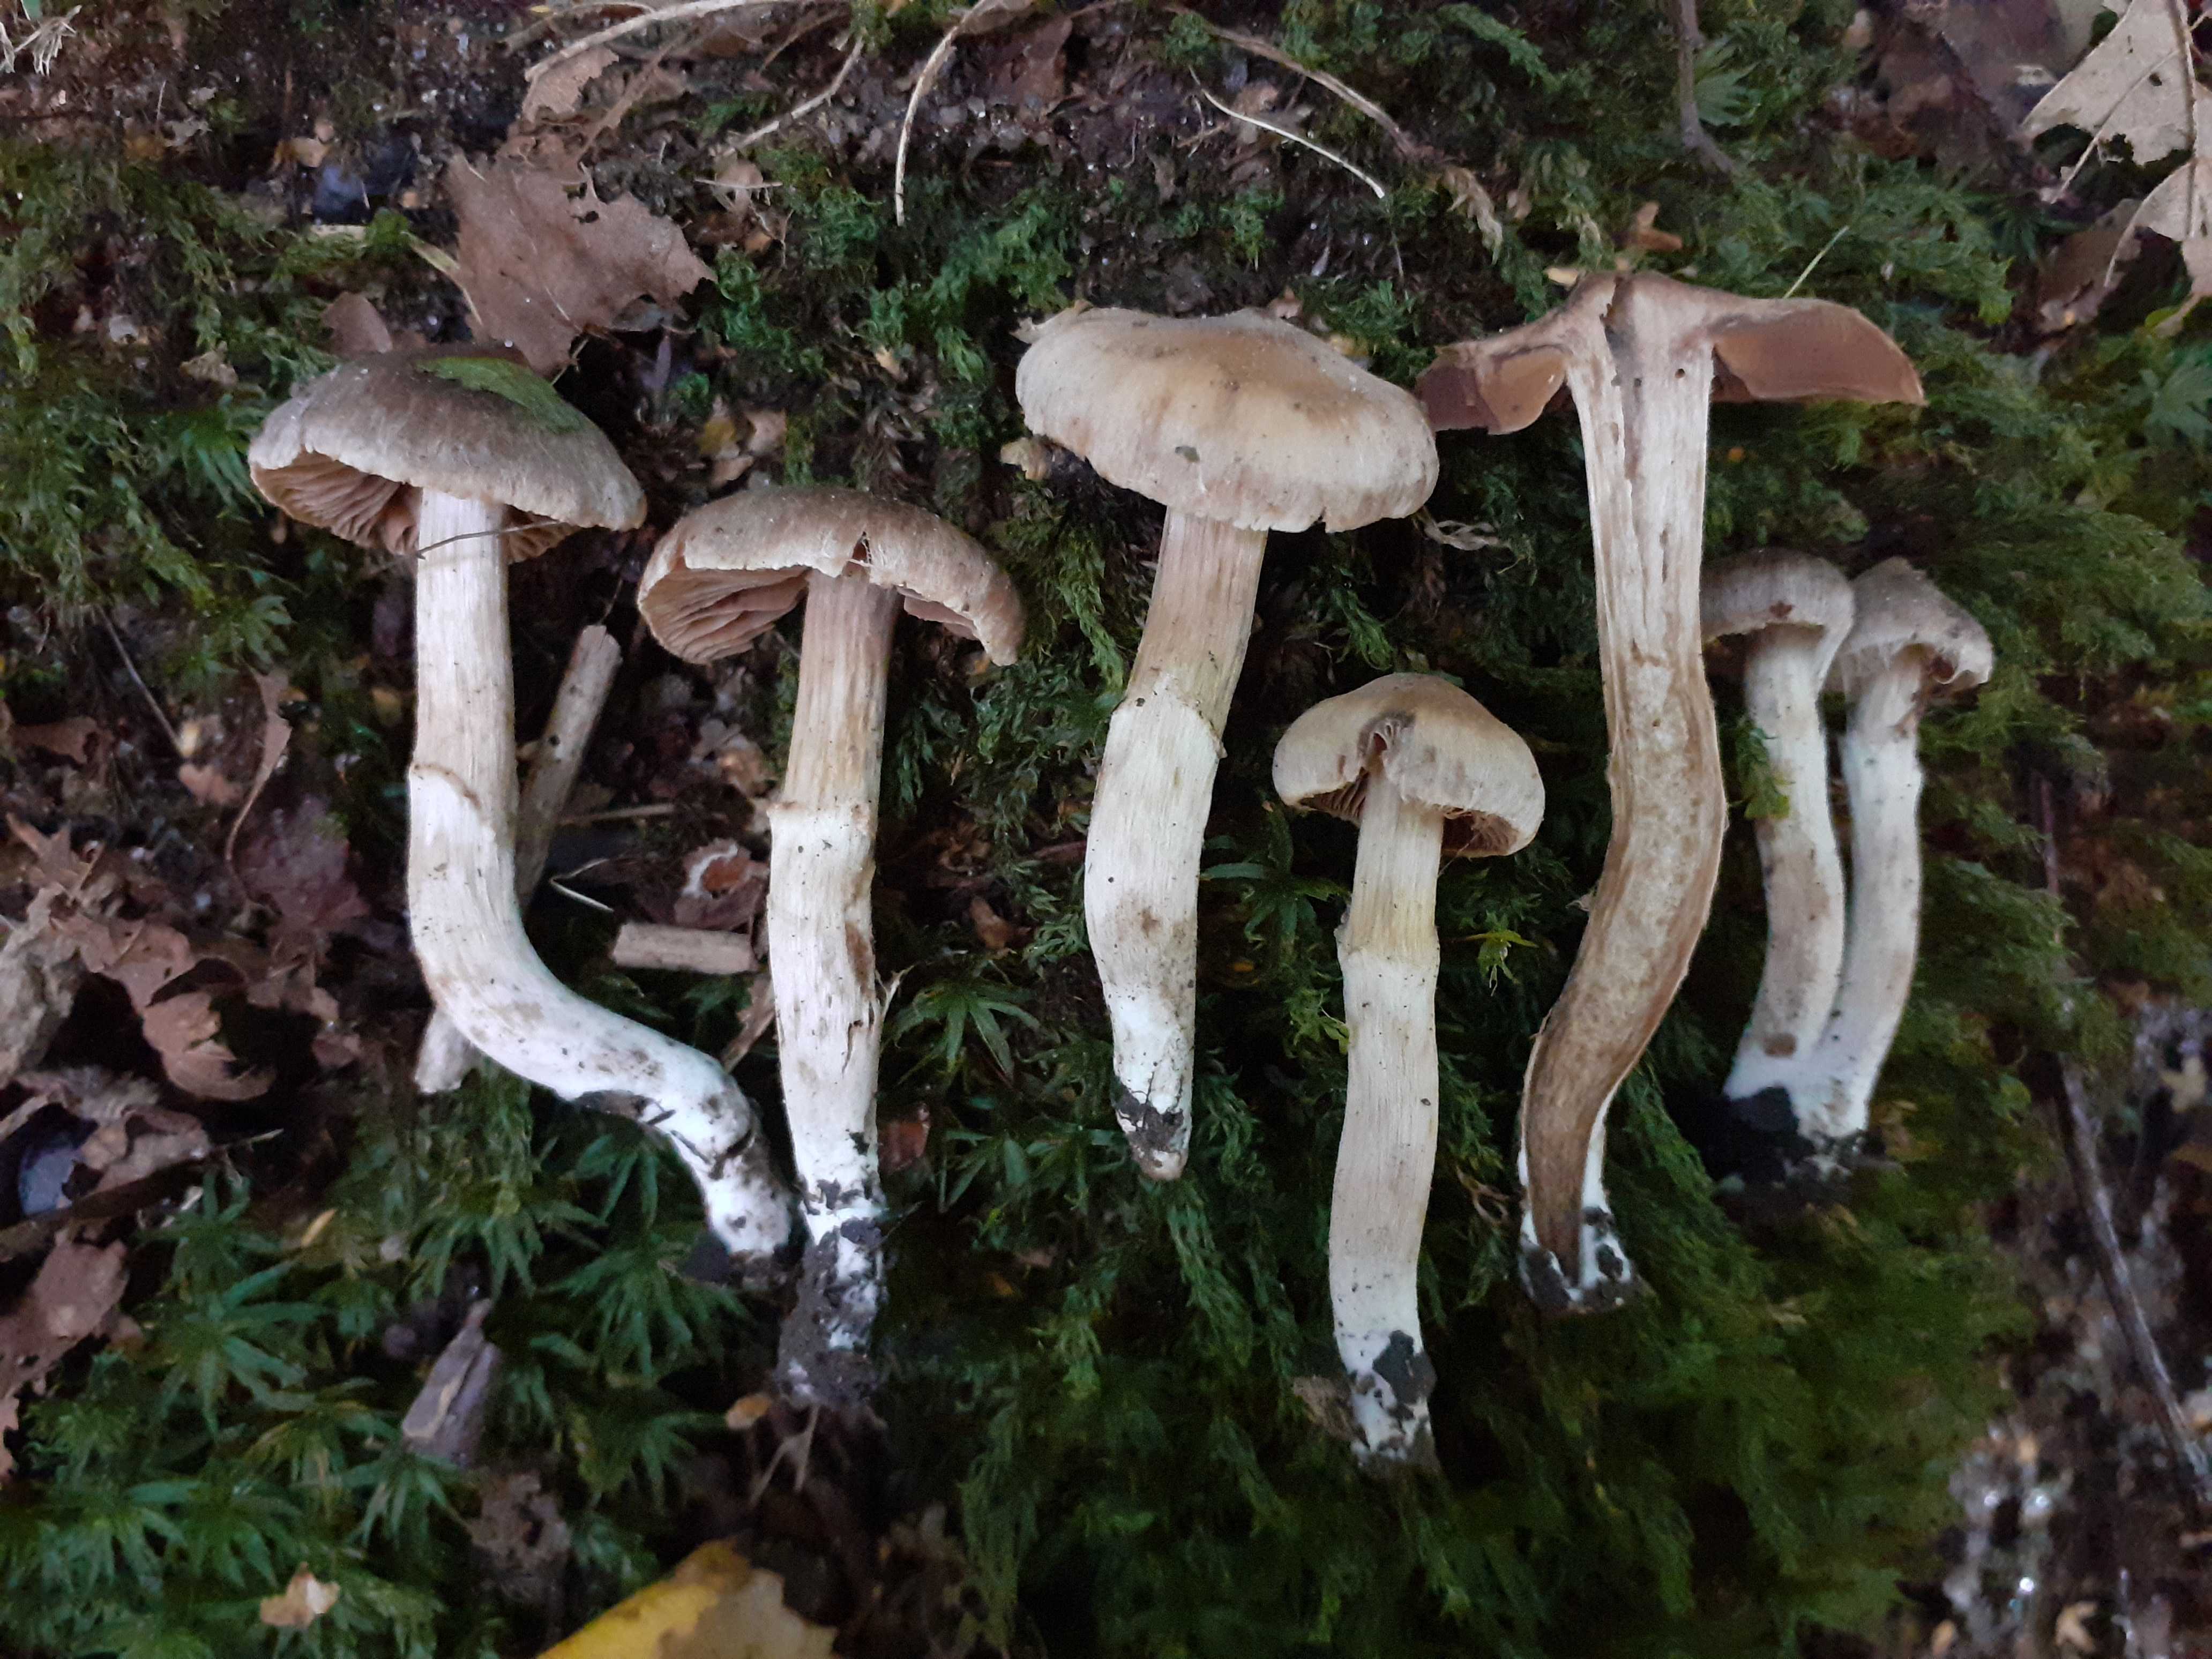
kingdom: Fungi
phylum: Basidiomycota
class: Agaricomycetes
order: Agaricales
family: Cortinariaceae
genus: Cortinarius
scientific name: Cortinarius rusticelloides
